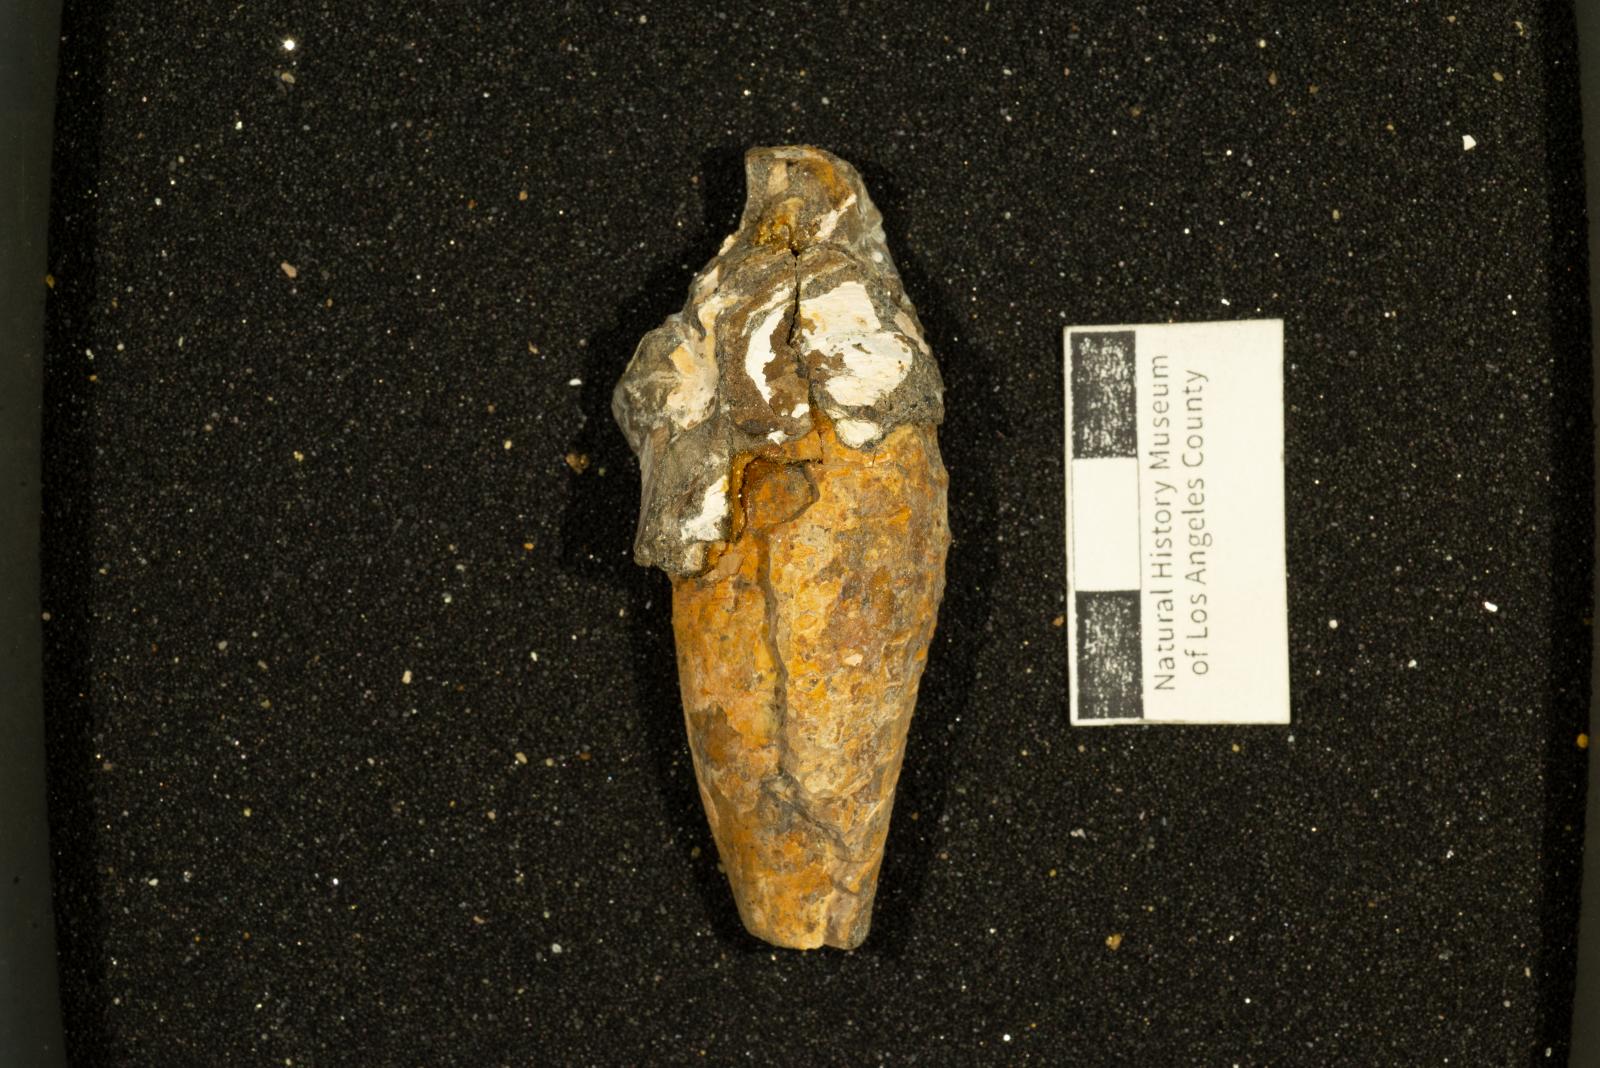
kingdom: Animalia
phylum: Mollusca
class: Gastropoda
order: Neogastropoda
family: Pholidotomidae
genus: Volutoderma
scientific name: Volutoderma perissa
